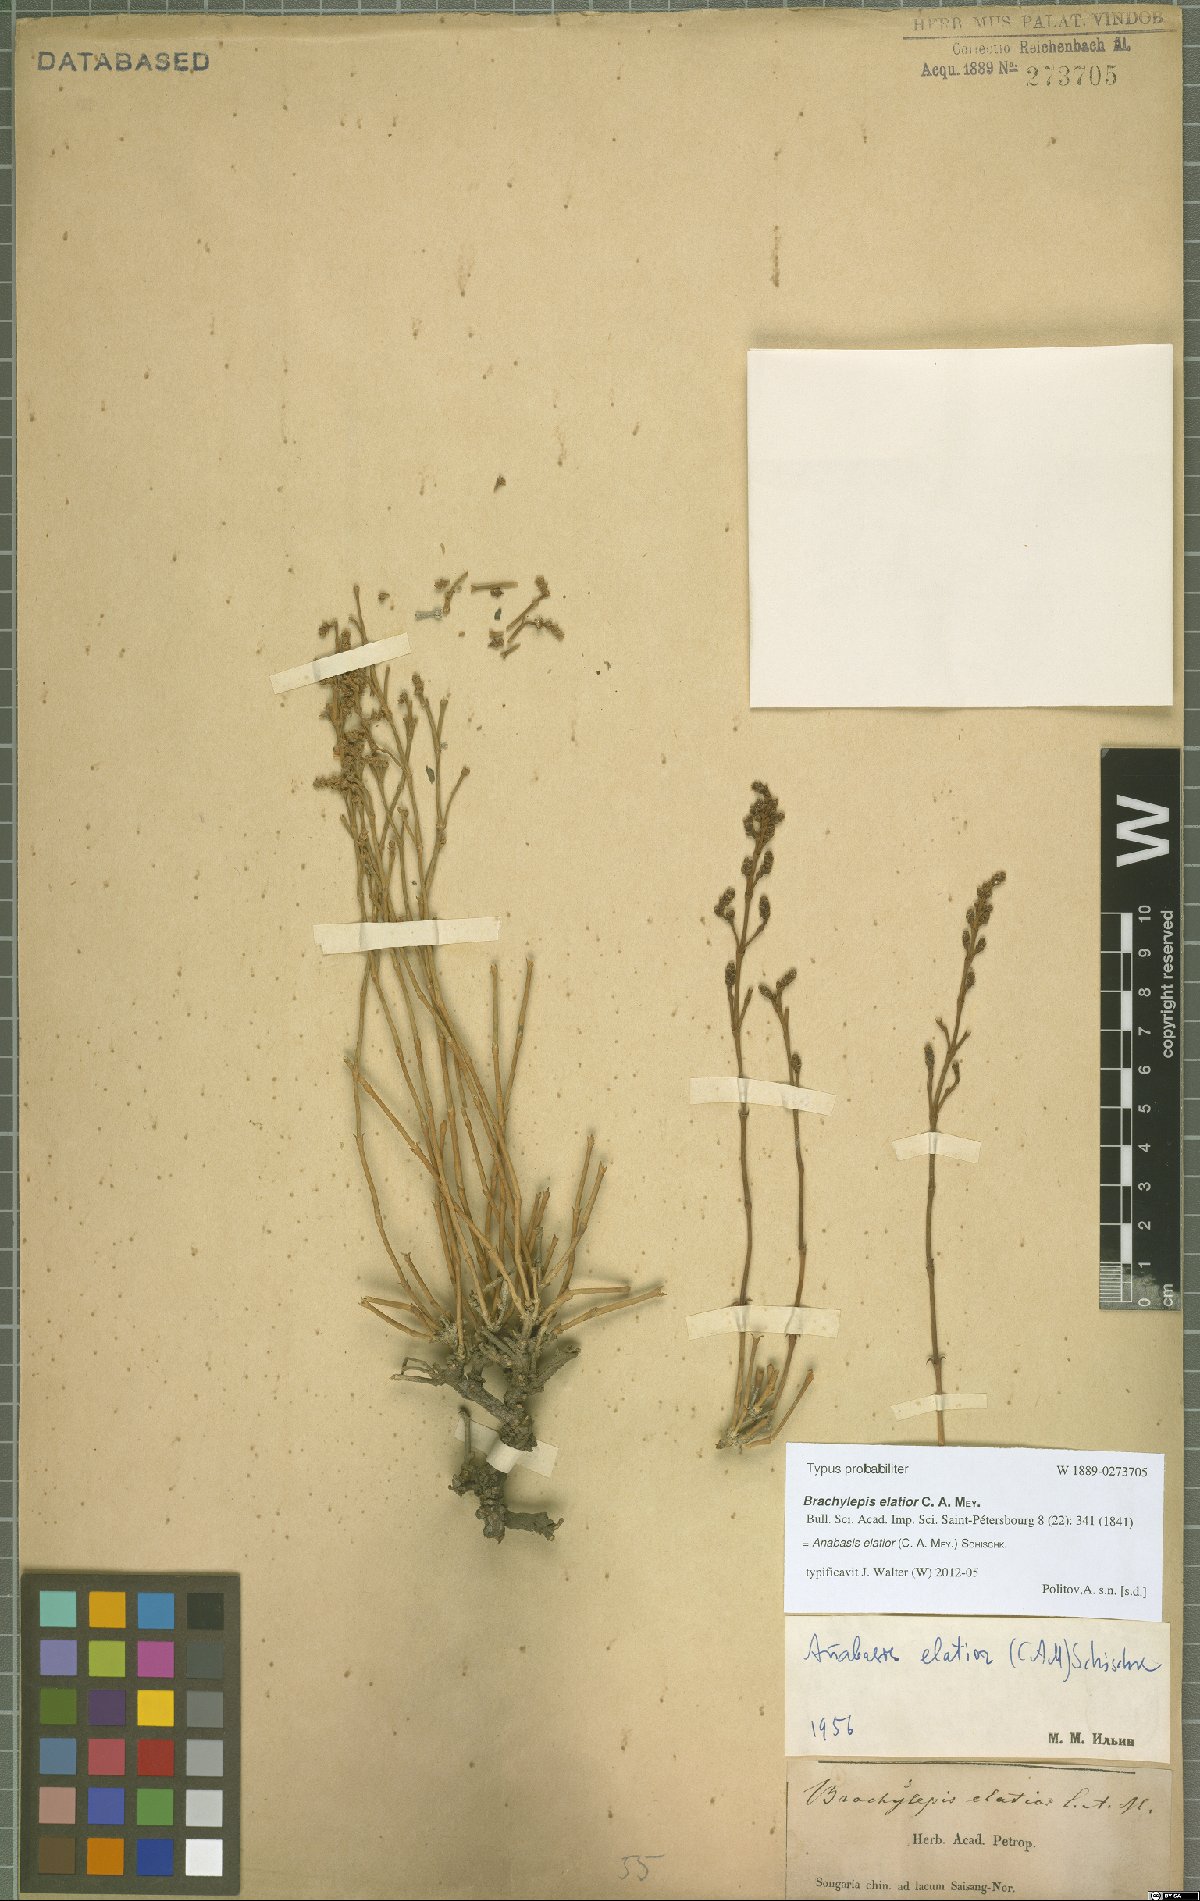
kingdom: Plantae
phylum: Tracheophyta
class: Magnoliopsida
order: Caryophyllales
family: Amaranthaceae
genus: Anabasis
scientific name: Anabasis elatior
